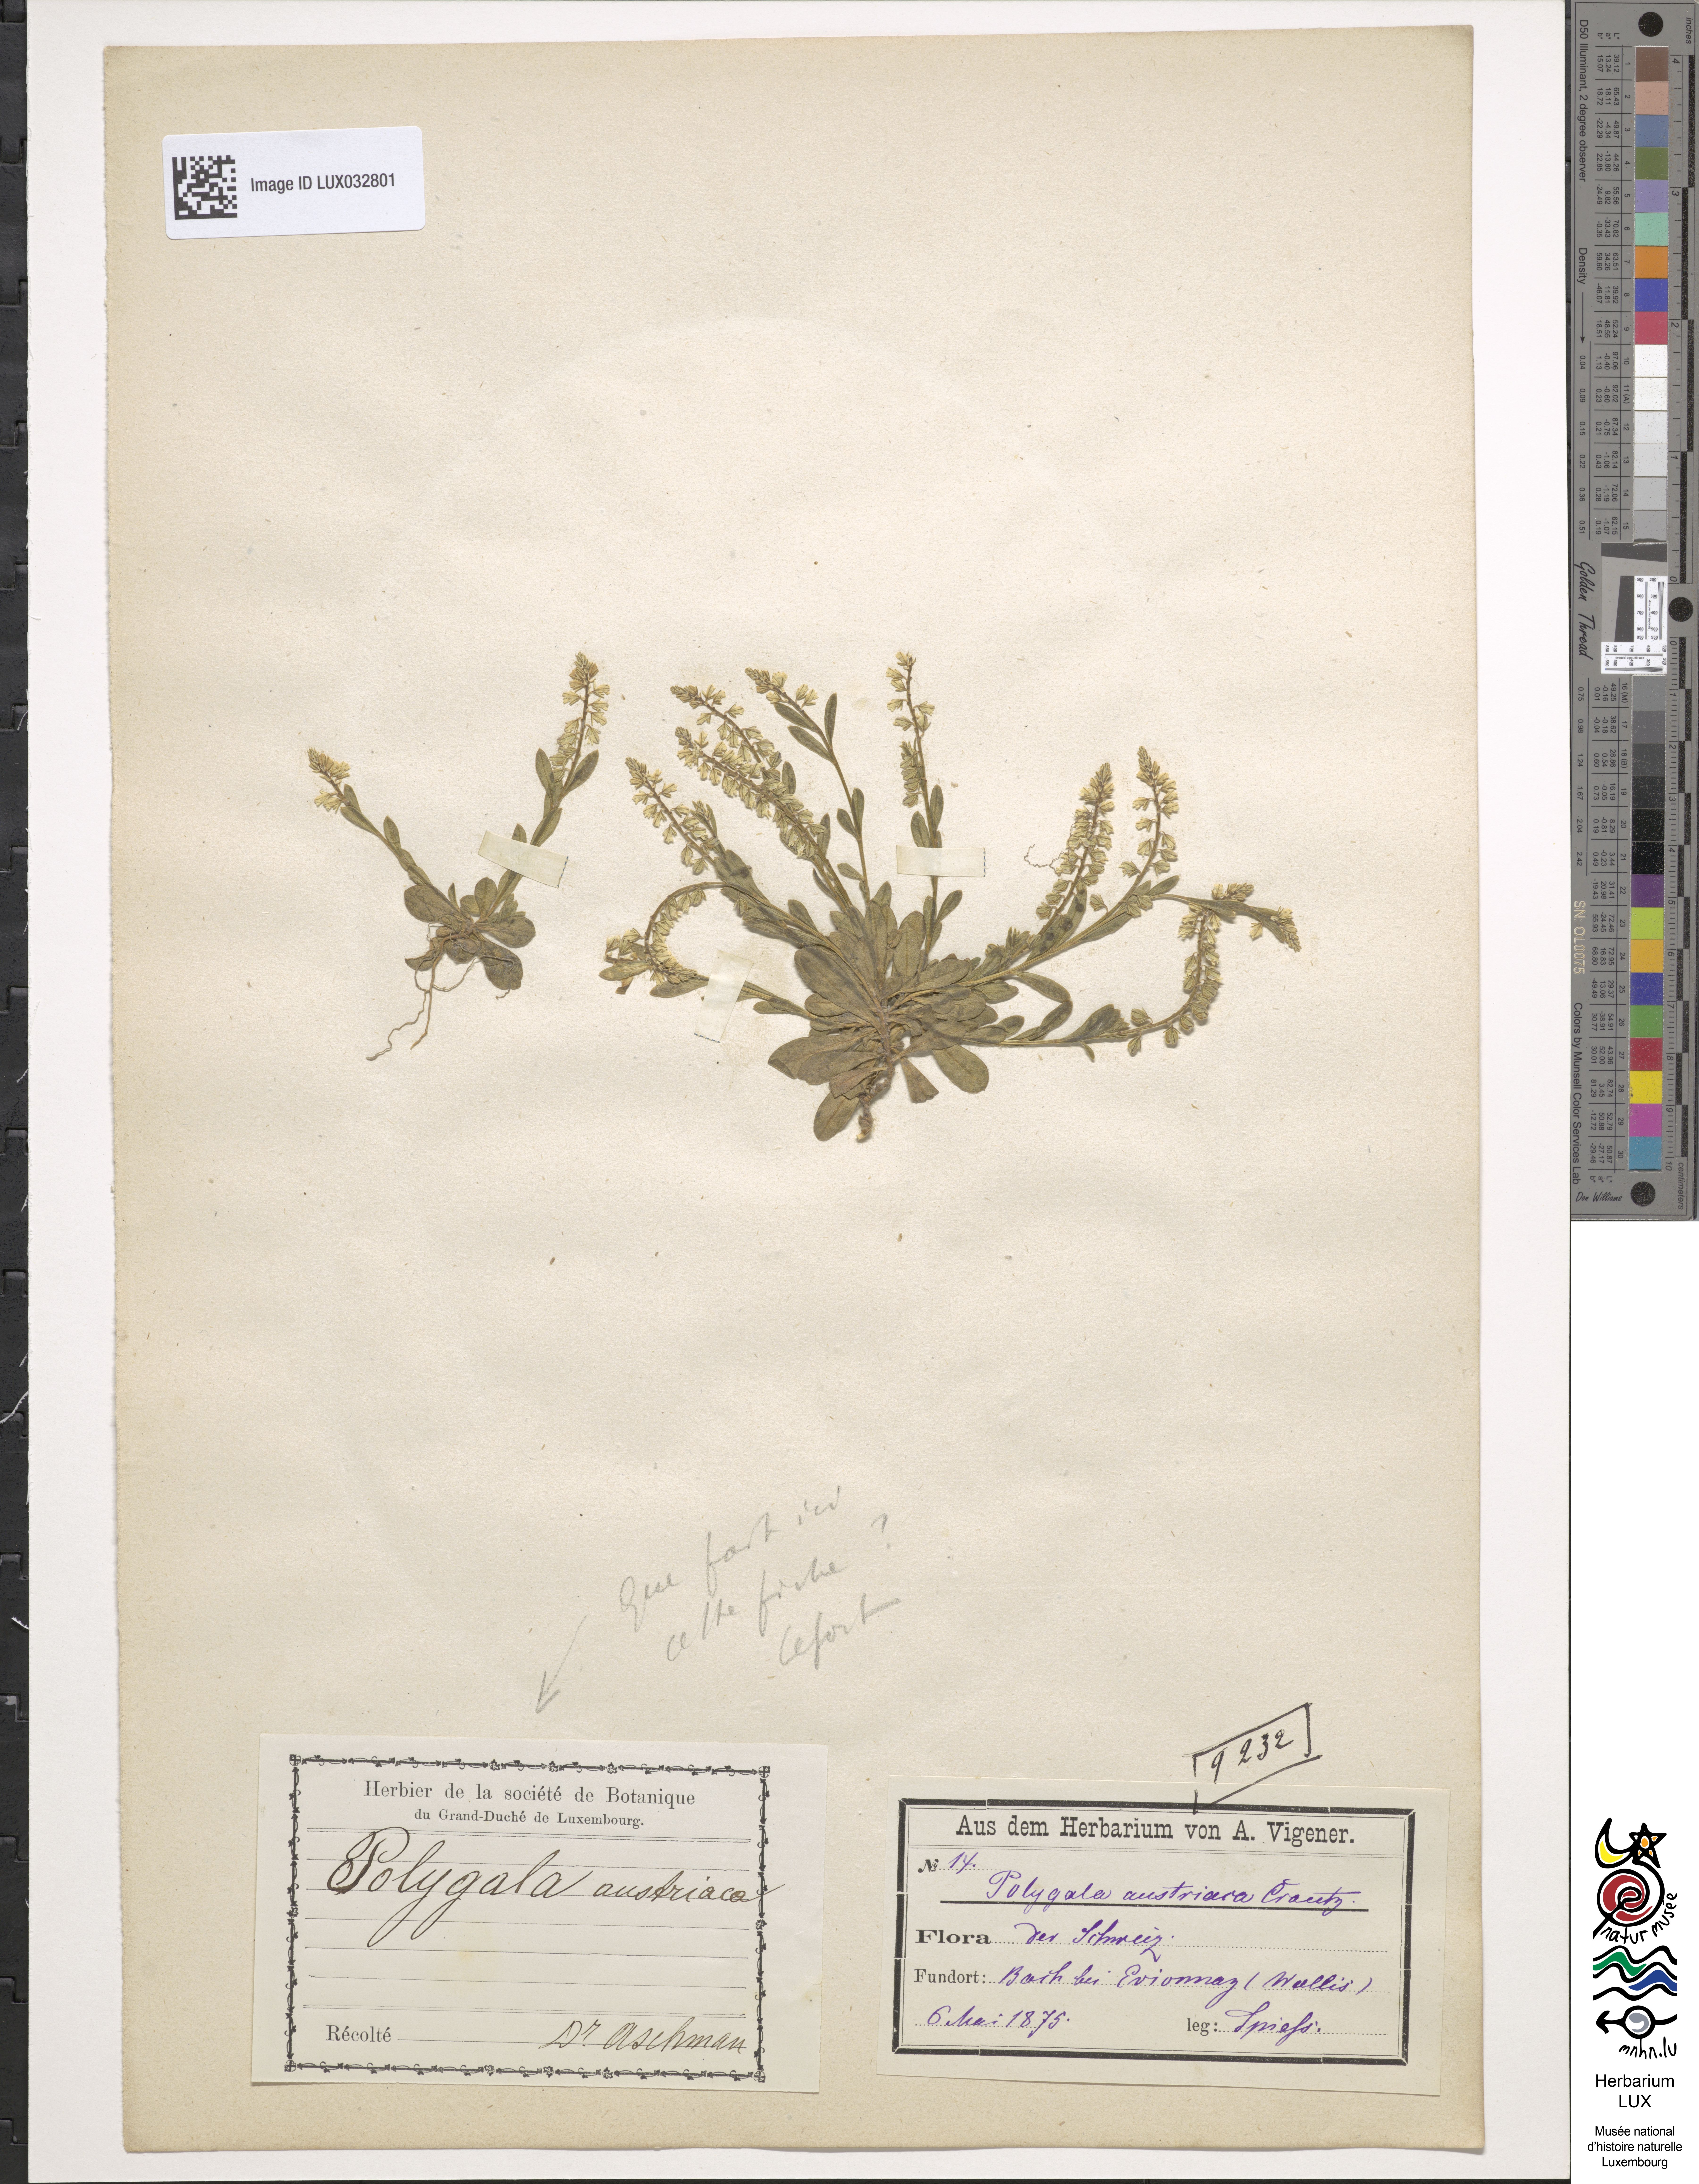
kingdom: Plantae
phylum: Tracheophyta
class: Magnoliopsida
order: Fabales
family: Polygalaceae
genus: Polygala
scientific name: Polygala amarella
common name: Dwarf milkwort
